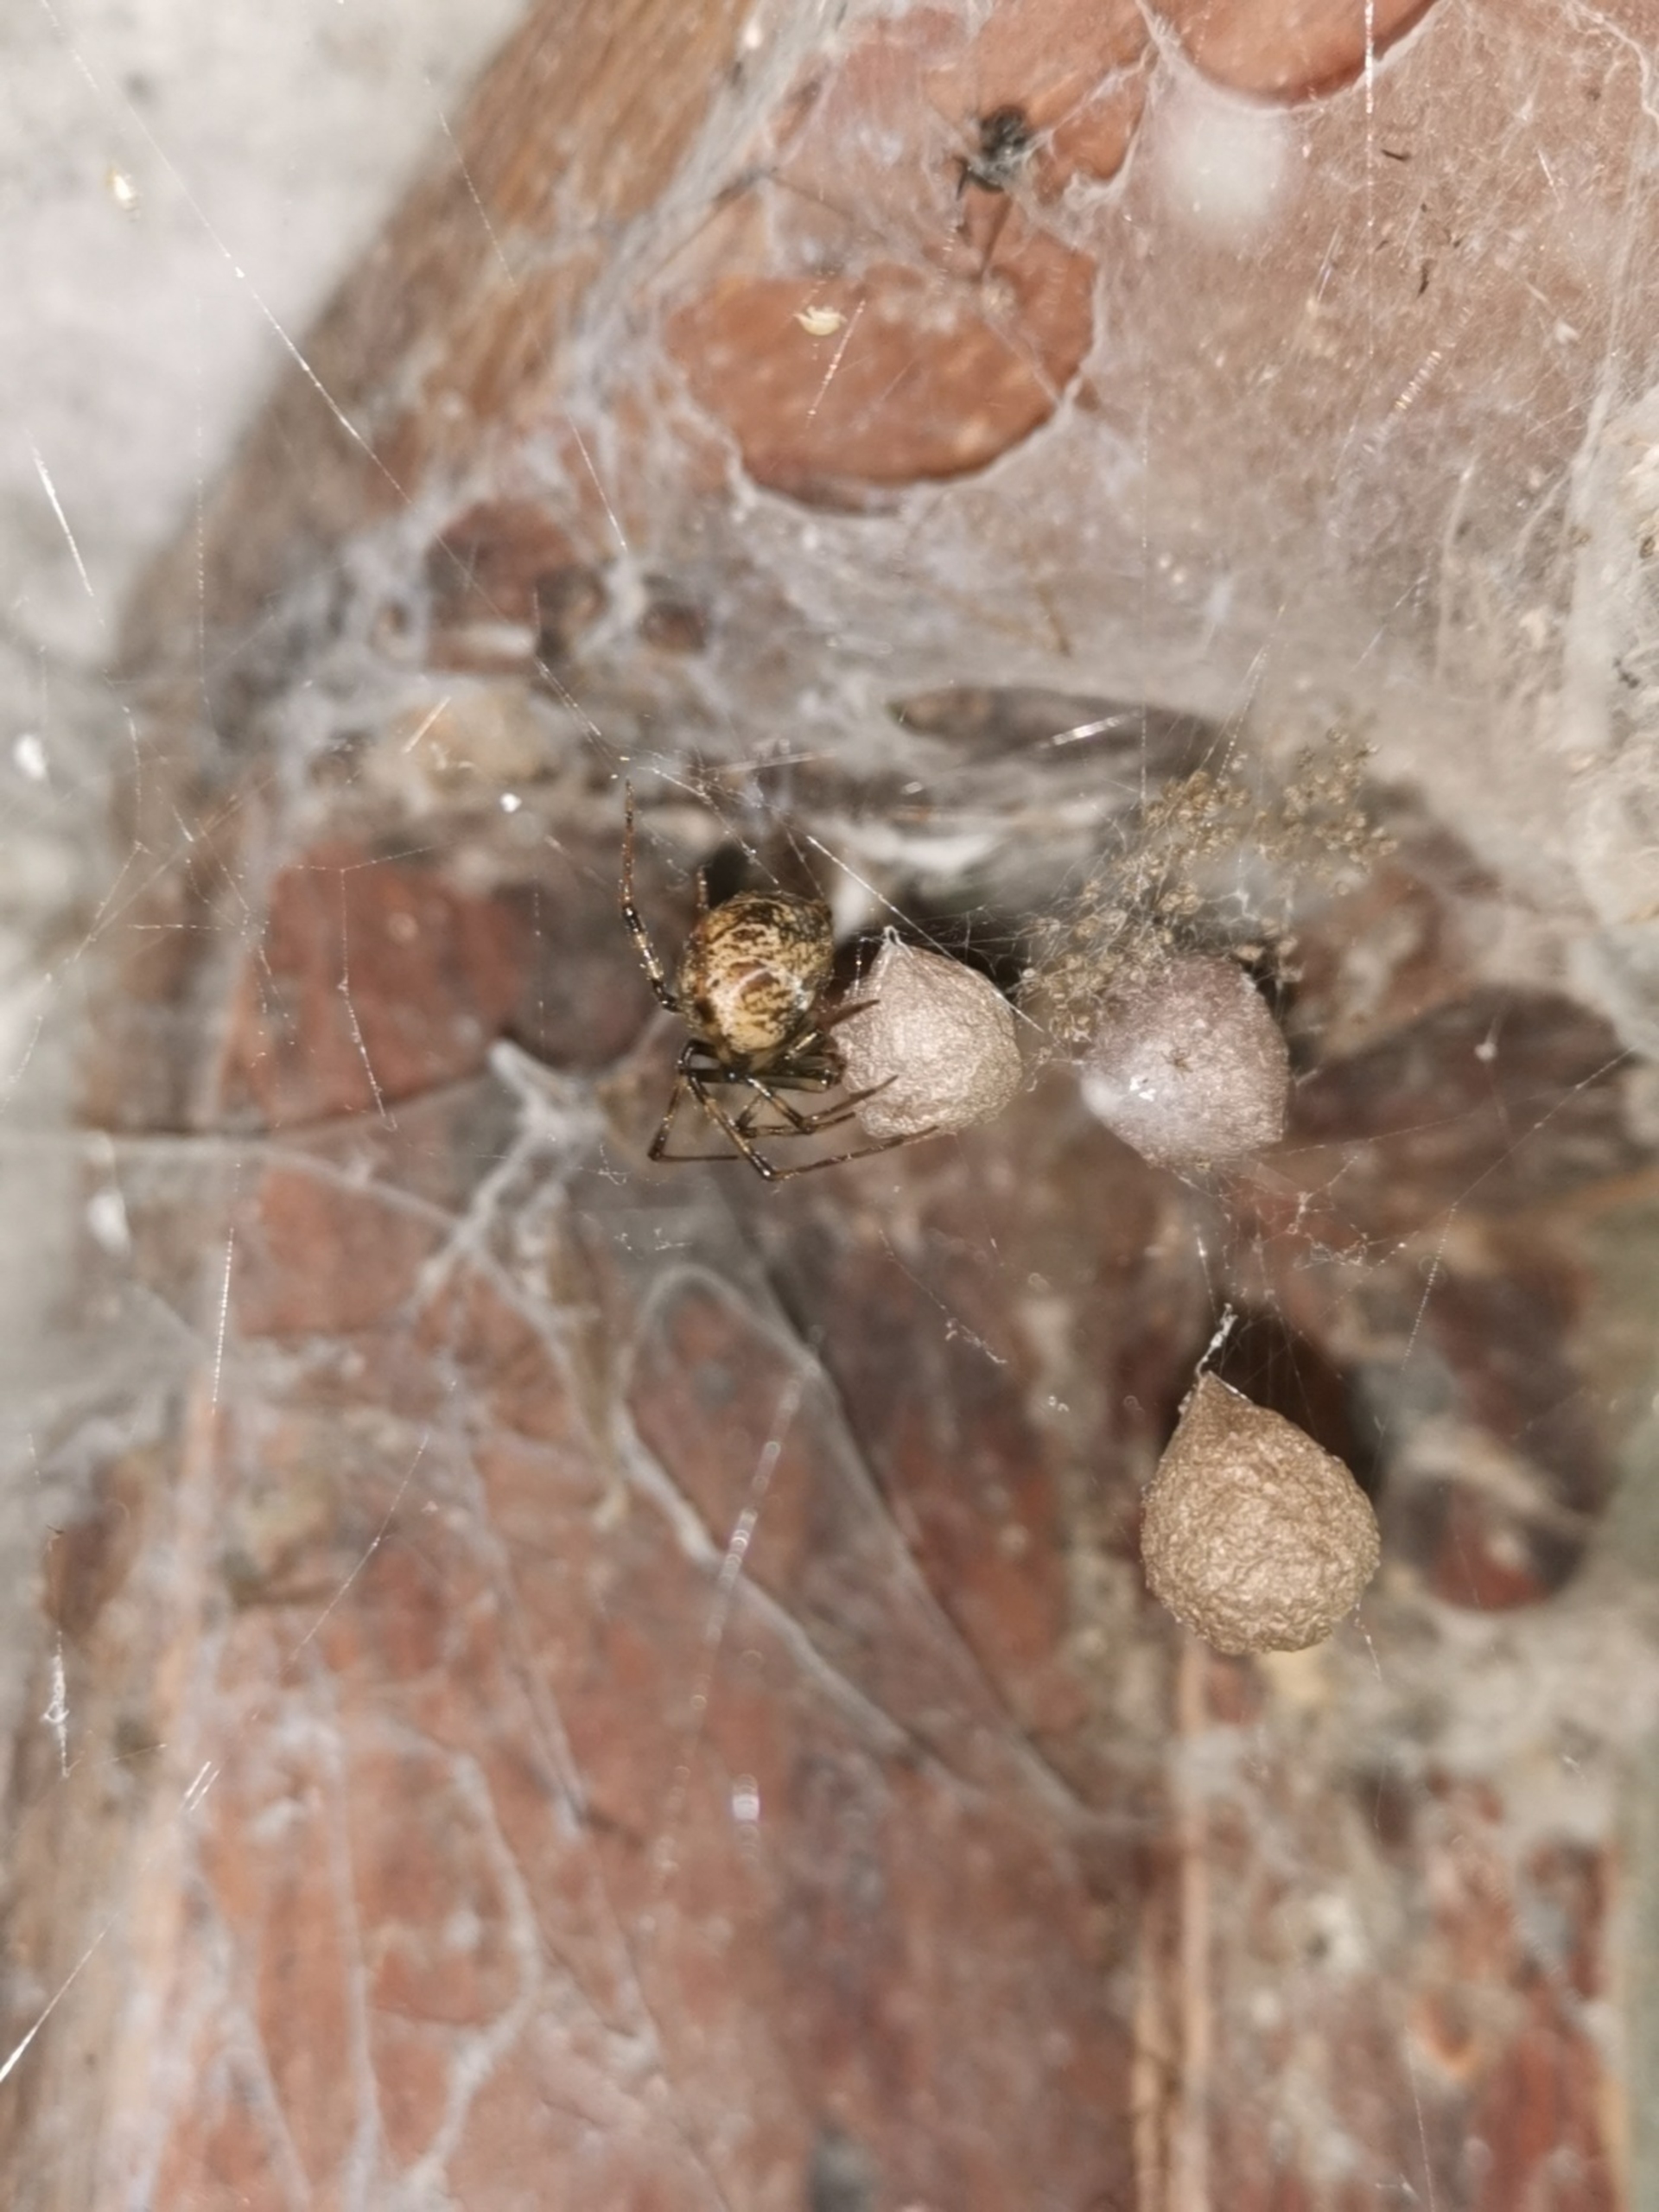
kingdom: Animalia
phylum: Arthropoda
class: Arachnida
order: Araneae
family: Theridiidae
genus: Parasteatoda
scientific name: Parasteatoda tepidariorum
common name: Væksthusspinder
